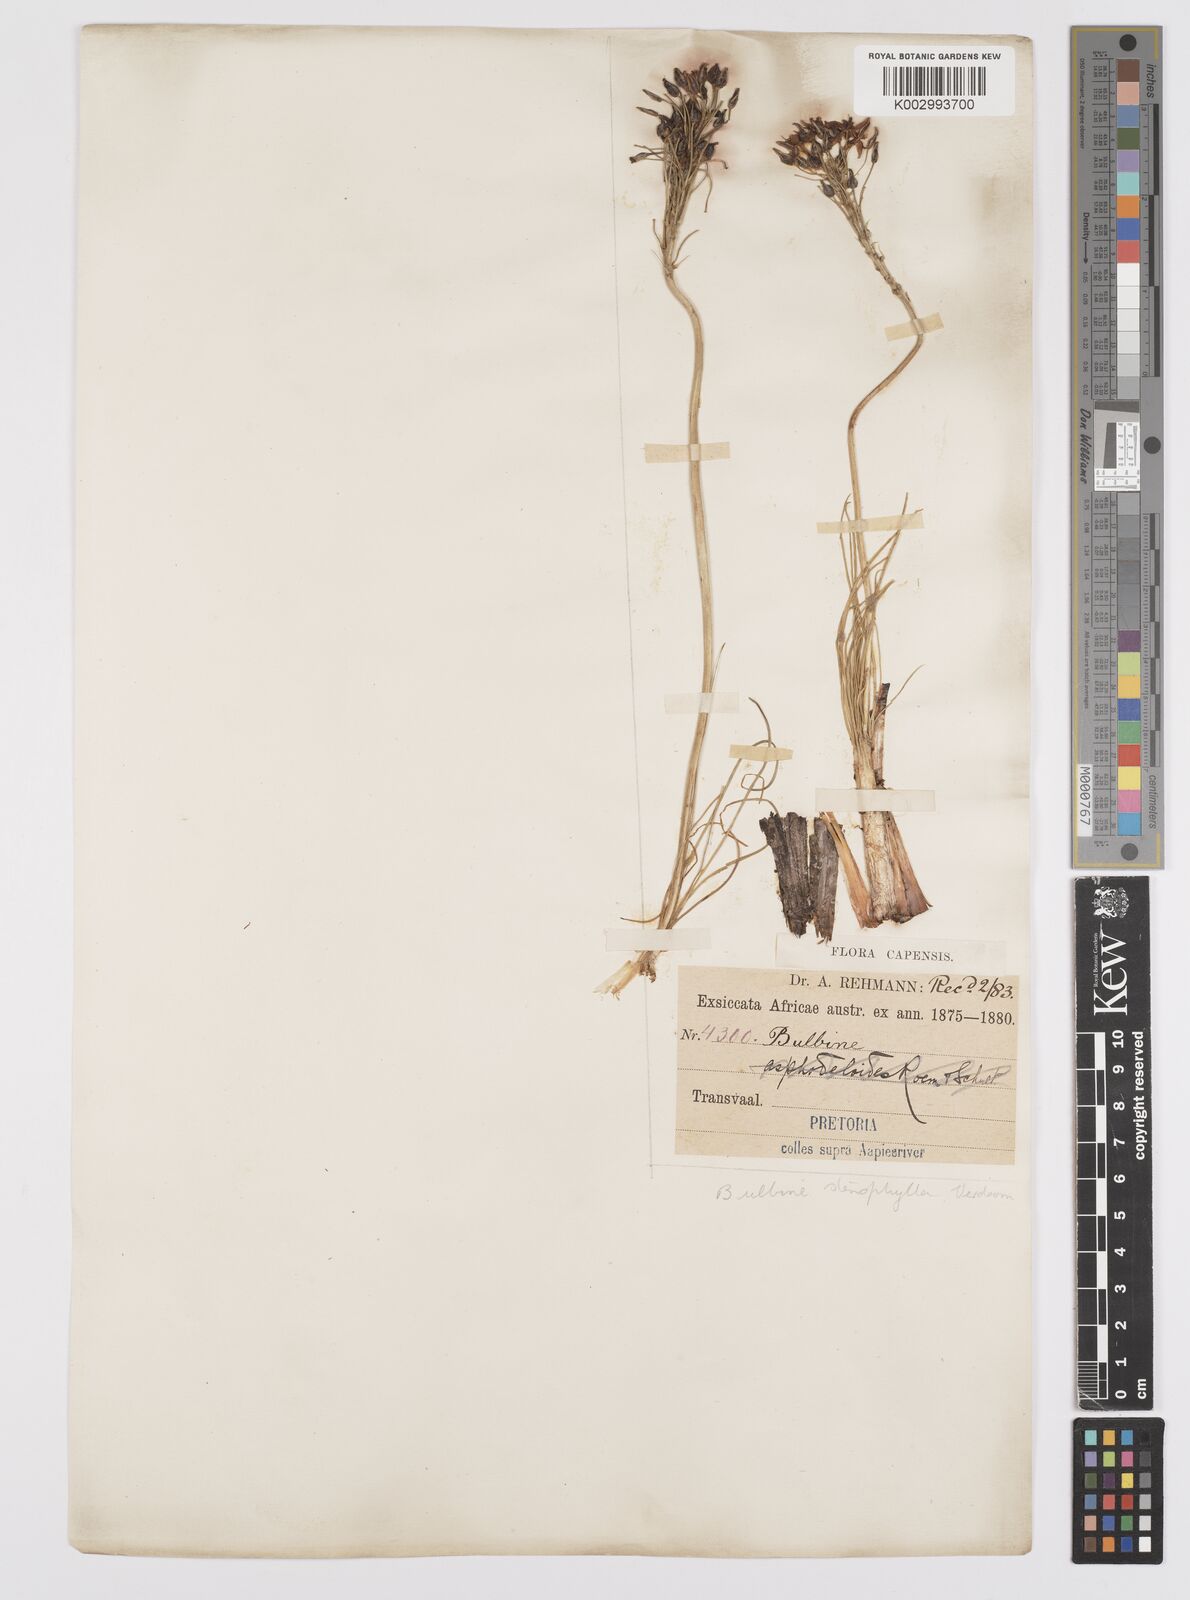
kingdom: Plantae
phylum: Tracheophyta
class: Liliopsida
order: Asparagales
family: Asphodelaceae
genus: Bulbine
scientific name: Bulbine capitata
